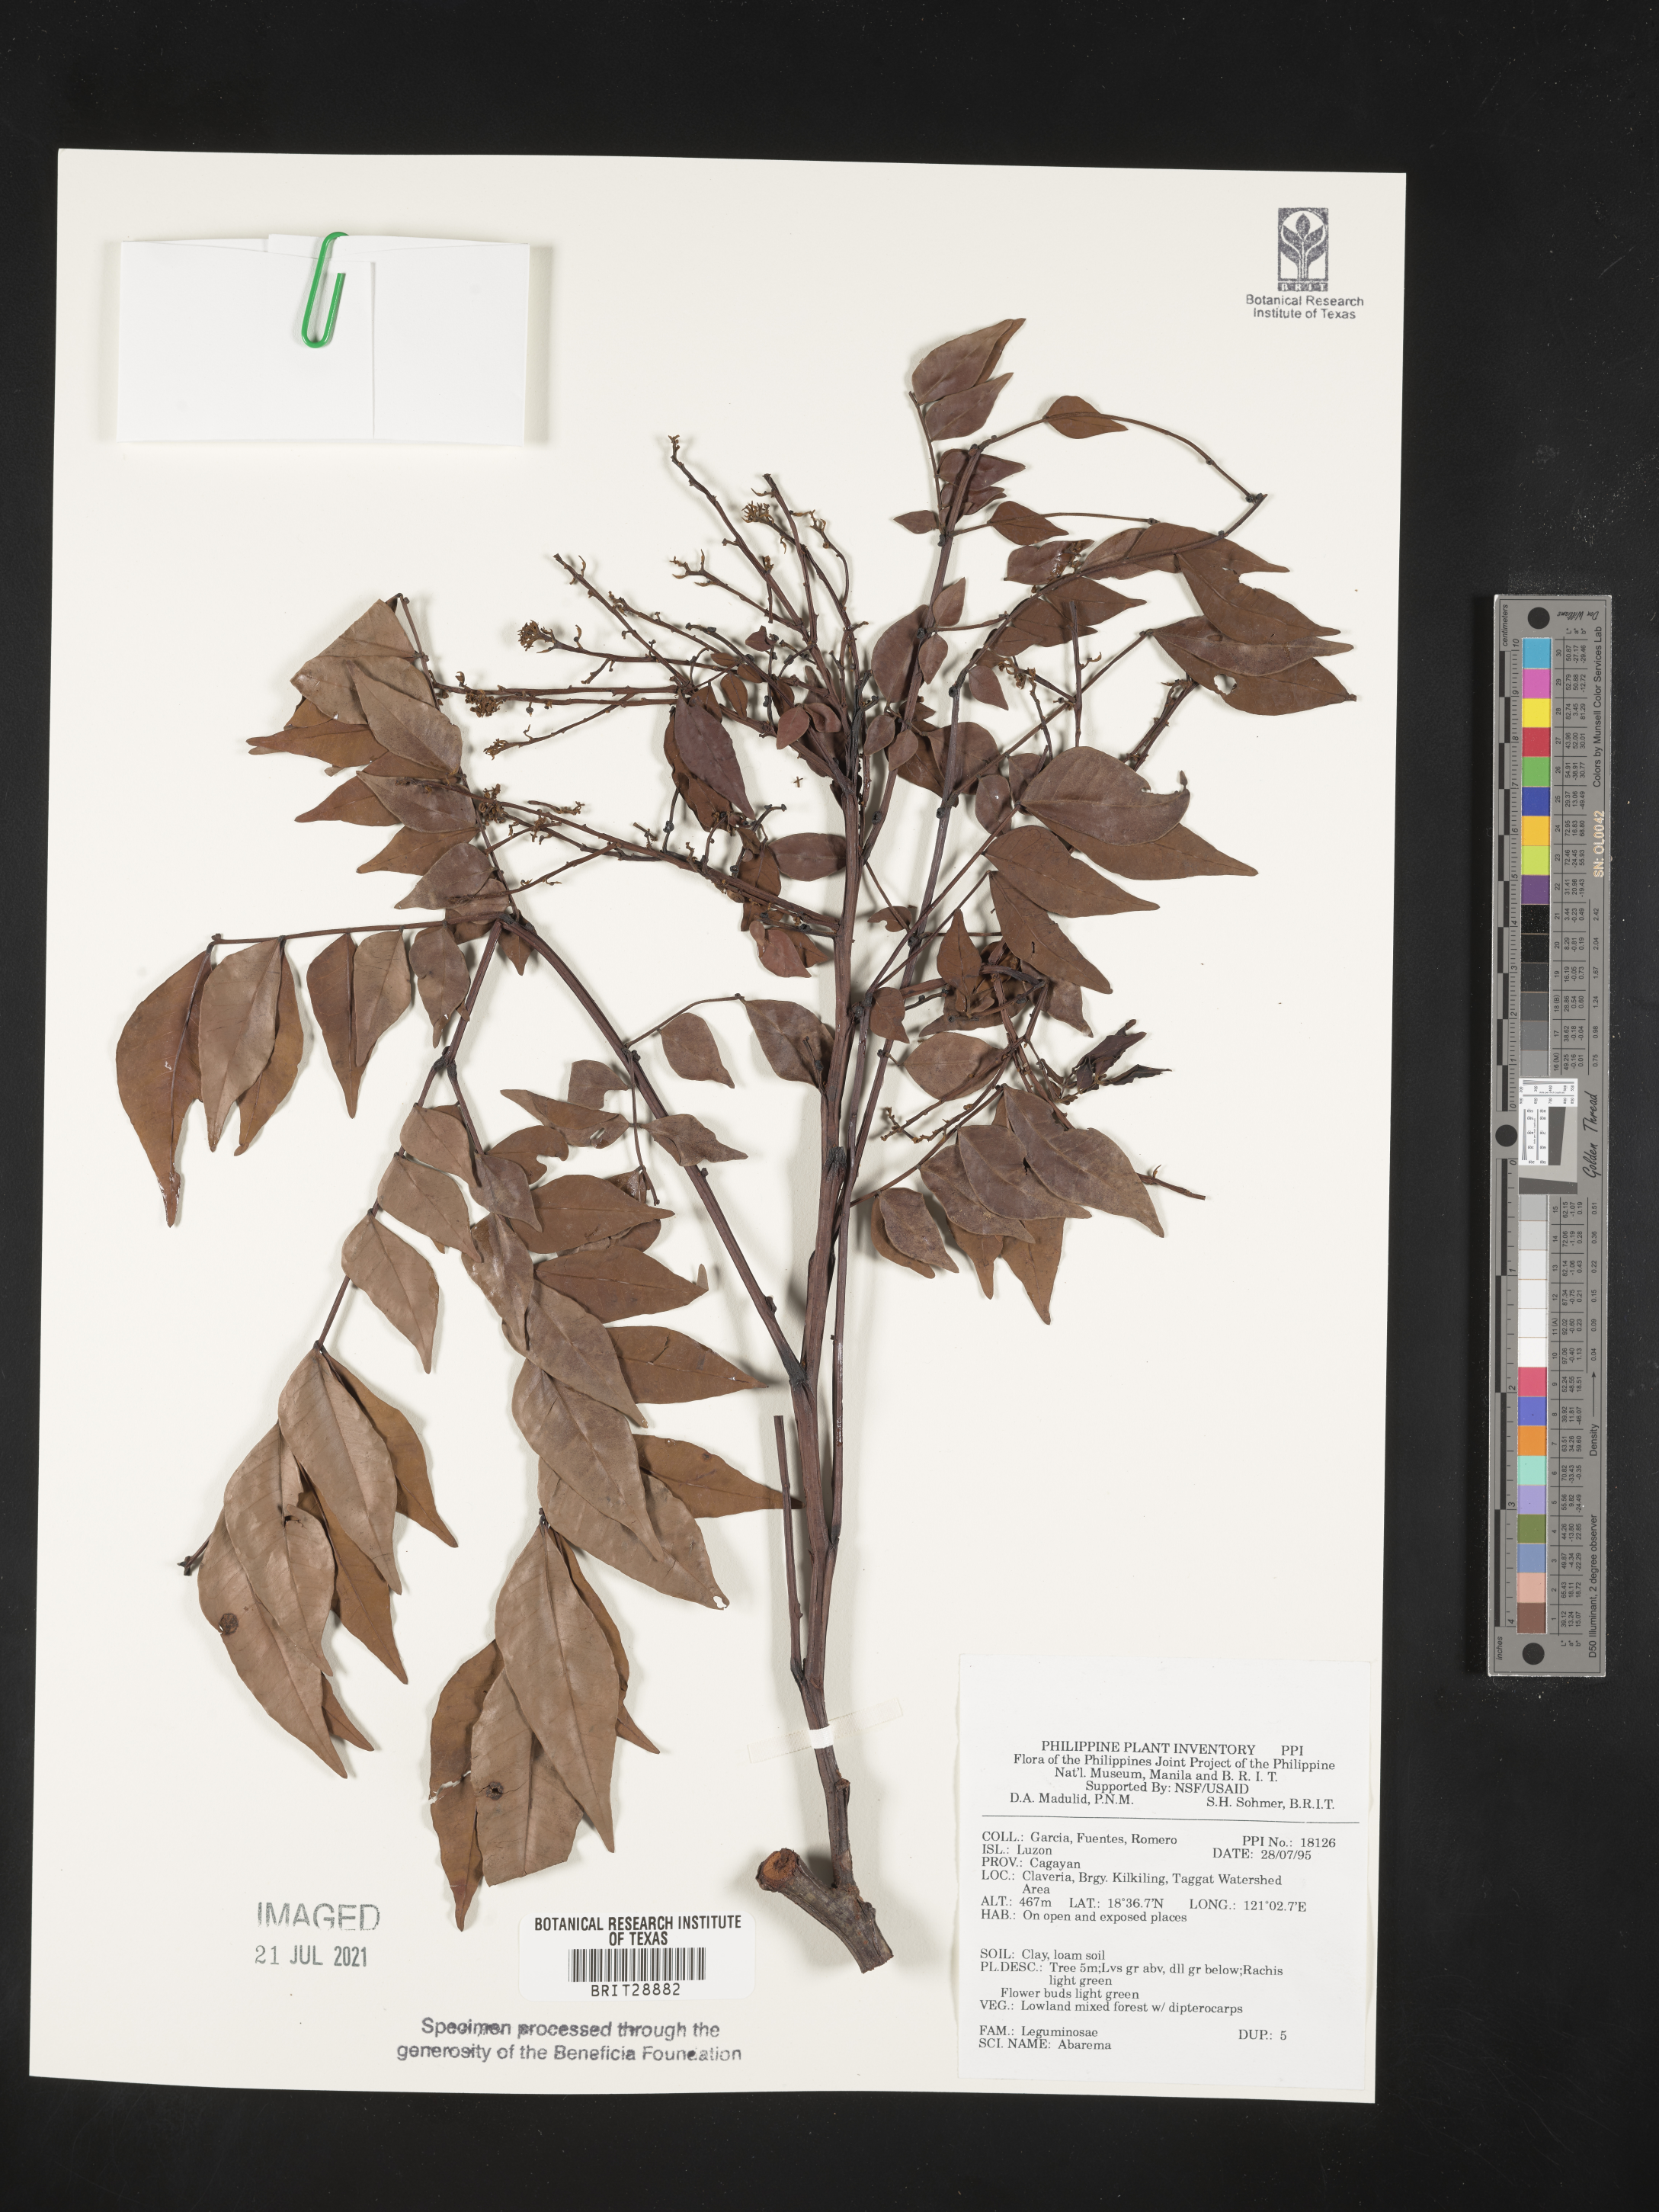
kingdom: Plantae
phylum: Tracheophyta
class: Magnoliopsida
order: Fabales
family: Fabaceae
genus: Abarema
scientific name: Abarema
